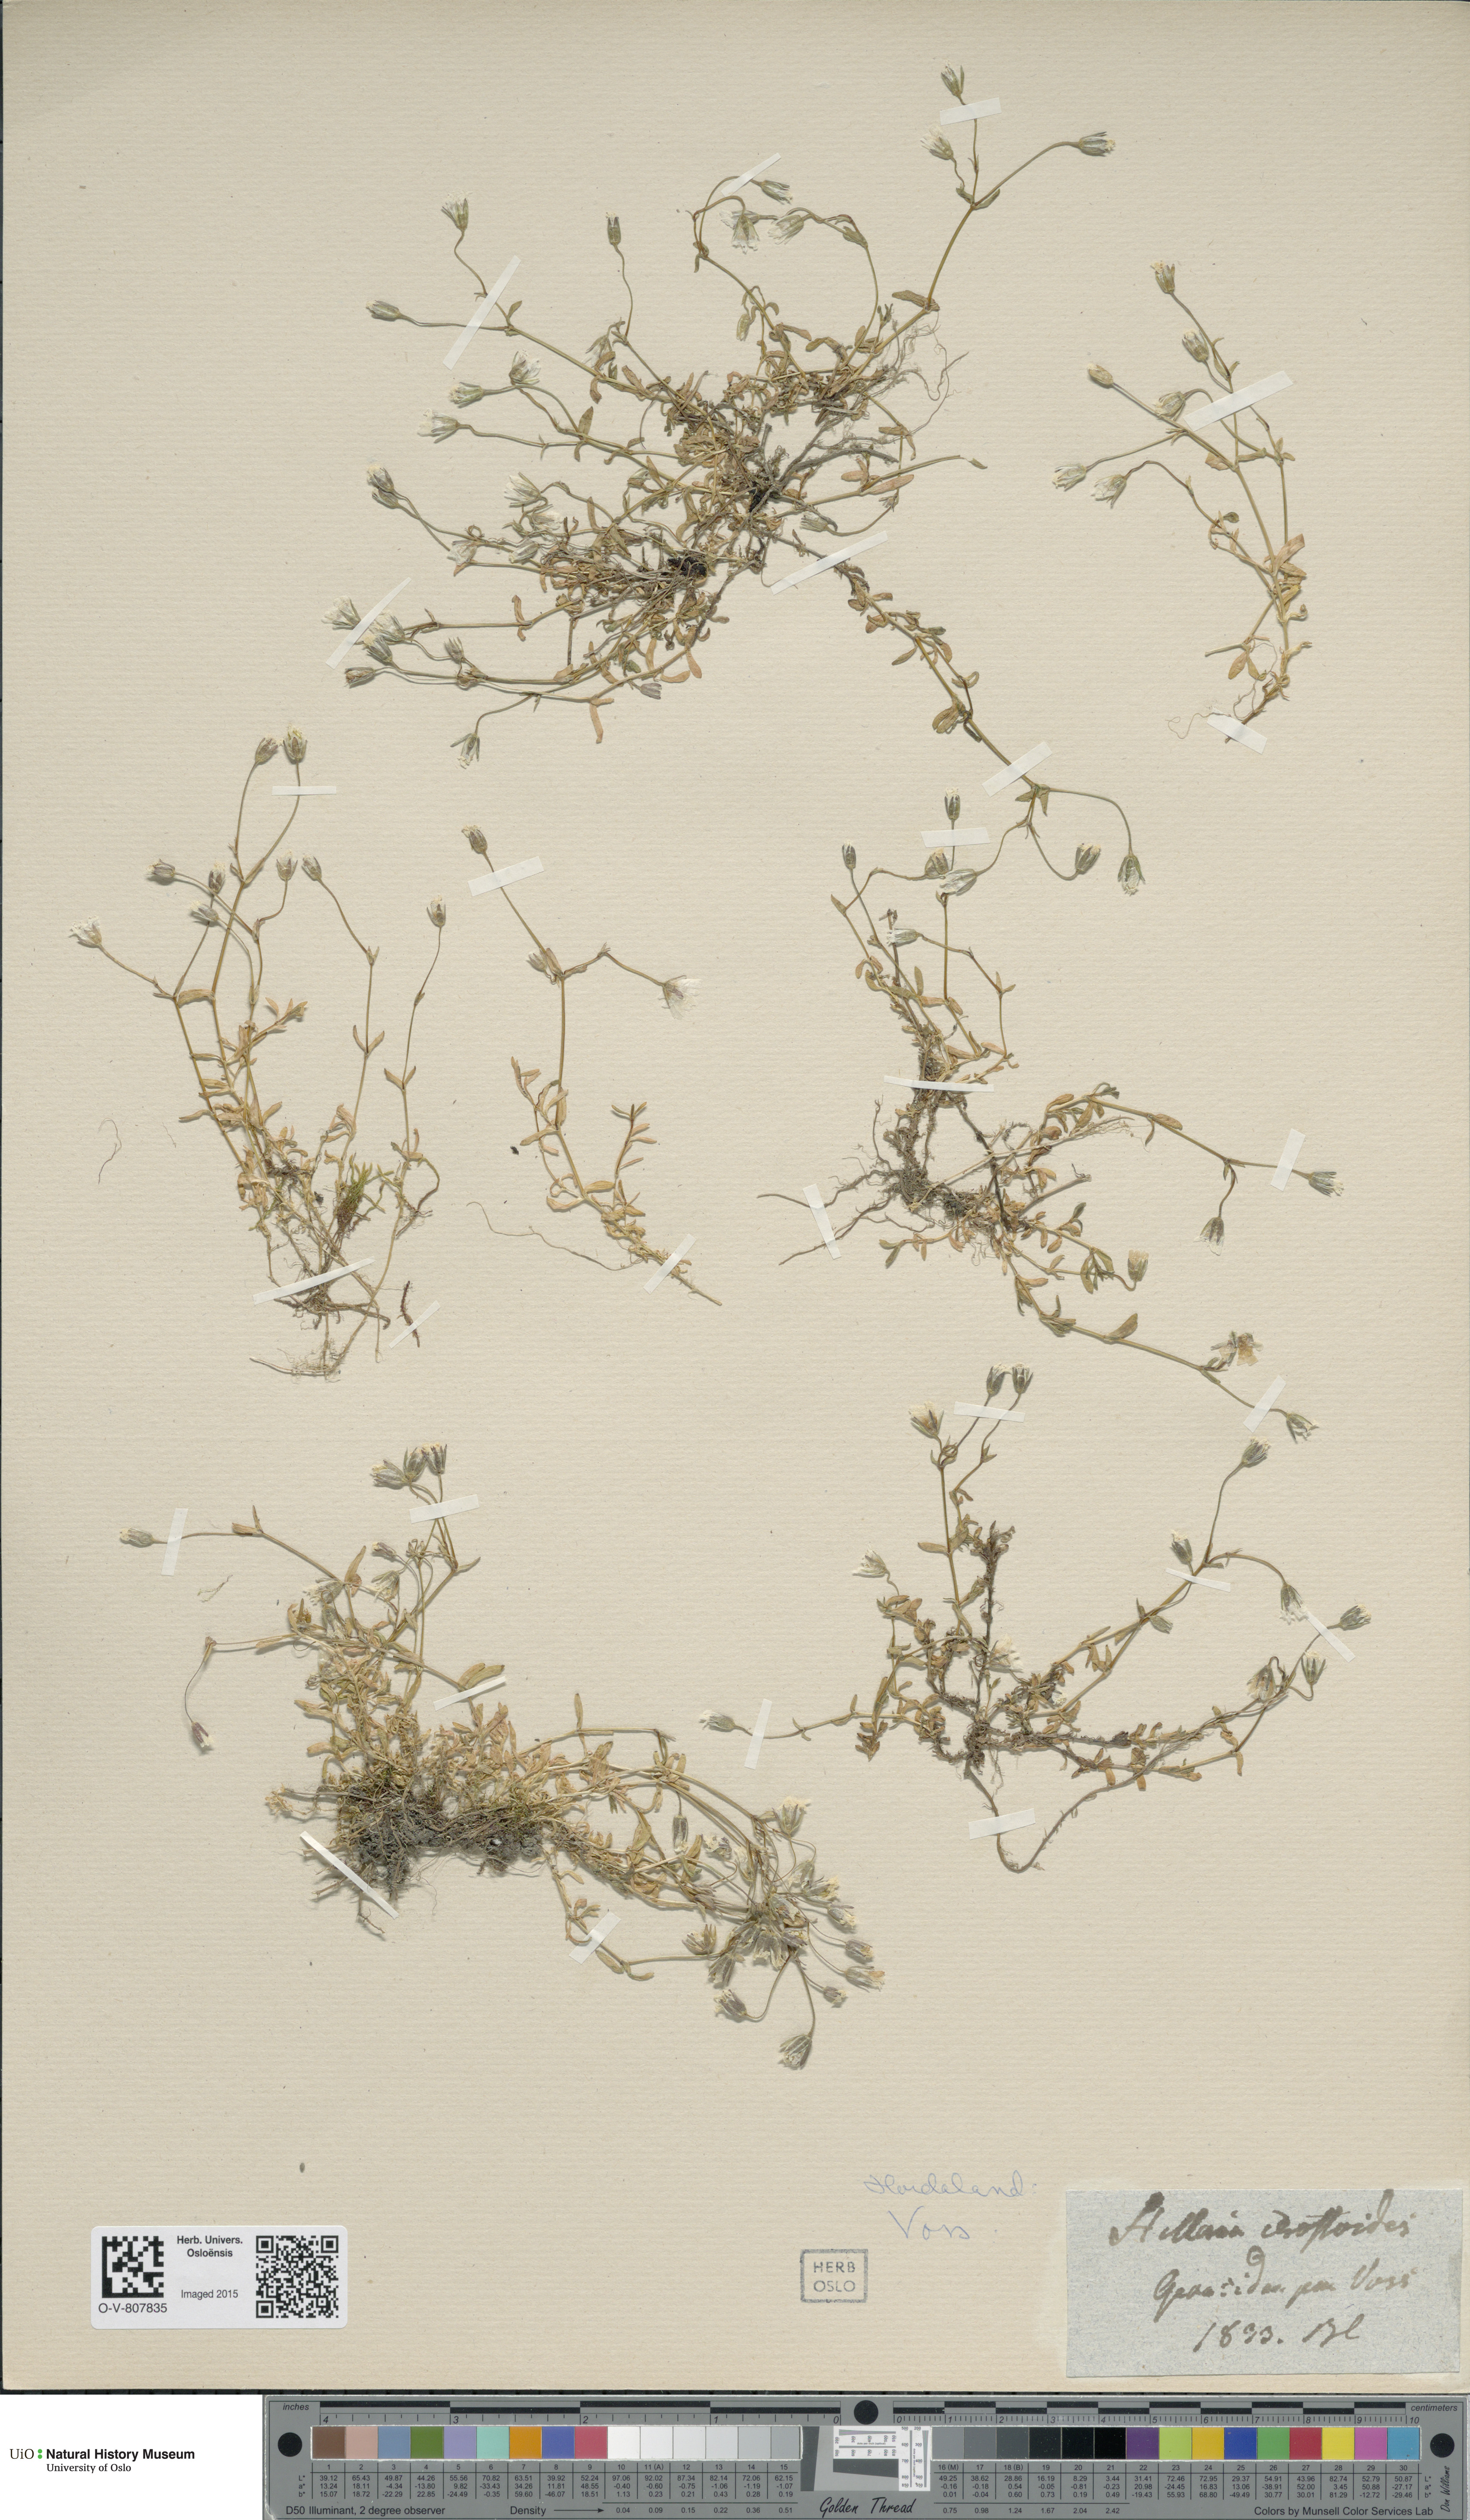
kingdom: Plantae
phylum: Tracheophyta
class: Magnoliopsida
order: Caryophyllales
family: Caryophyllaceae
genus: Dichodon
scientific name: Dichodon cerastoides
